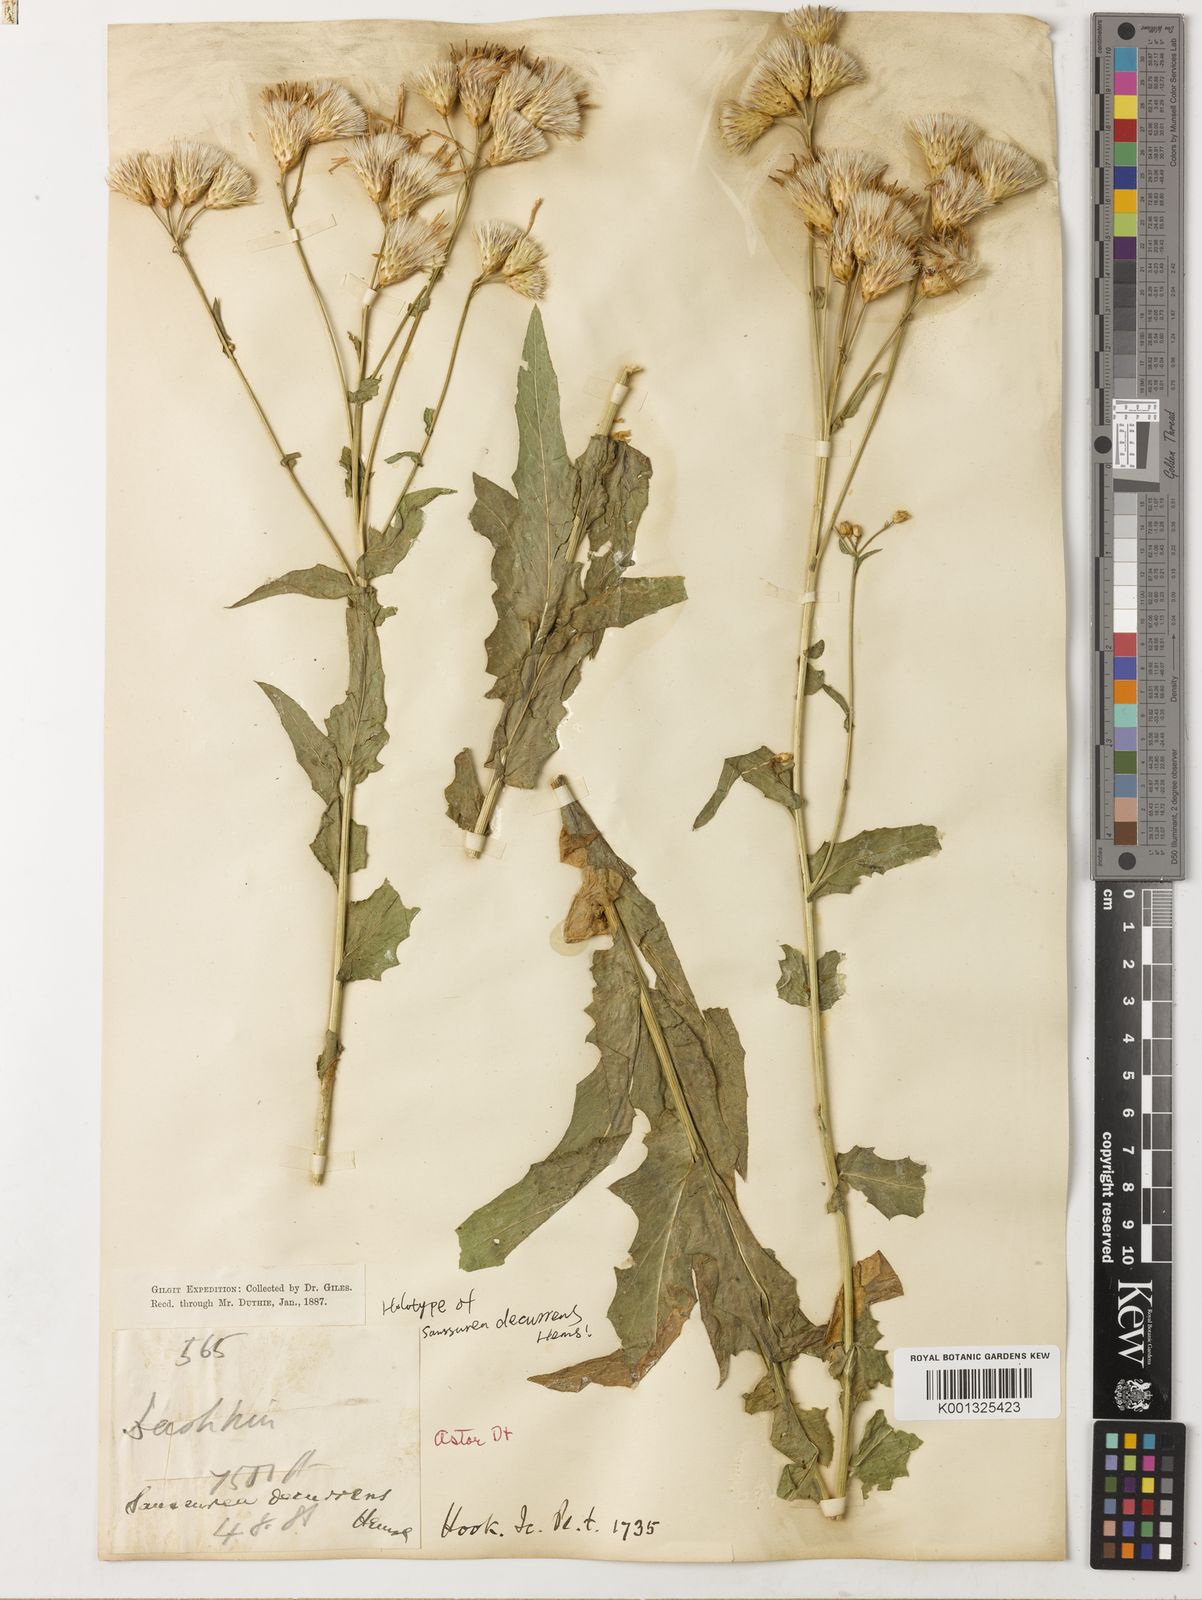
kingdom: Plantae
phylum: Tracheophyta
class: Magnoliopsida
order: Asterales
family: Asteraceae
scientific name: Asteraceae
